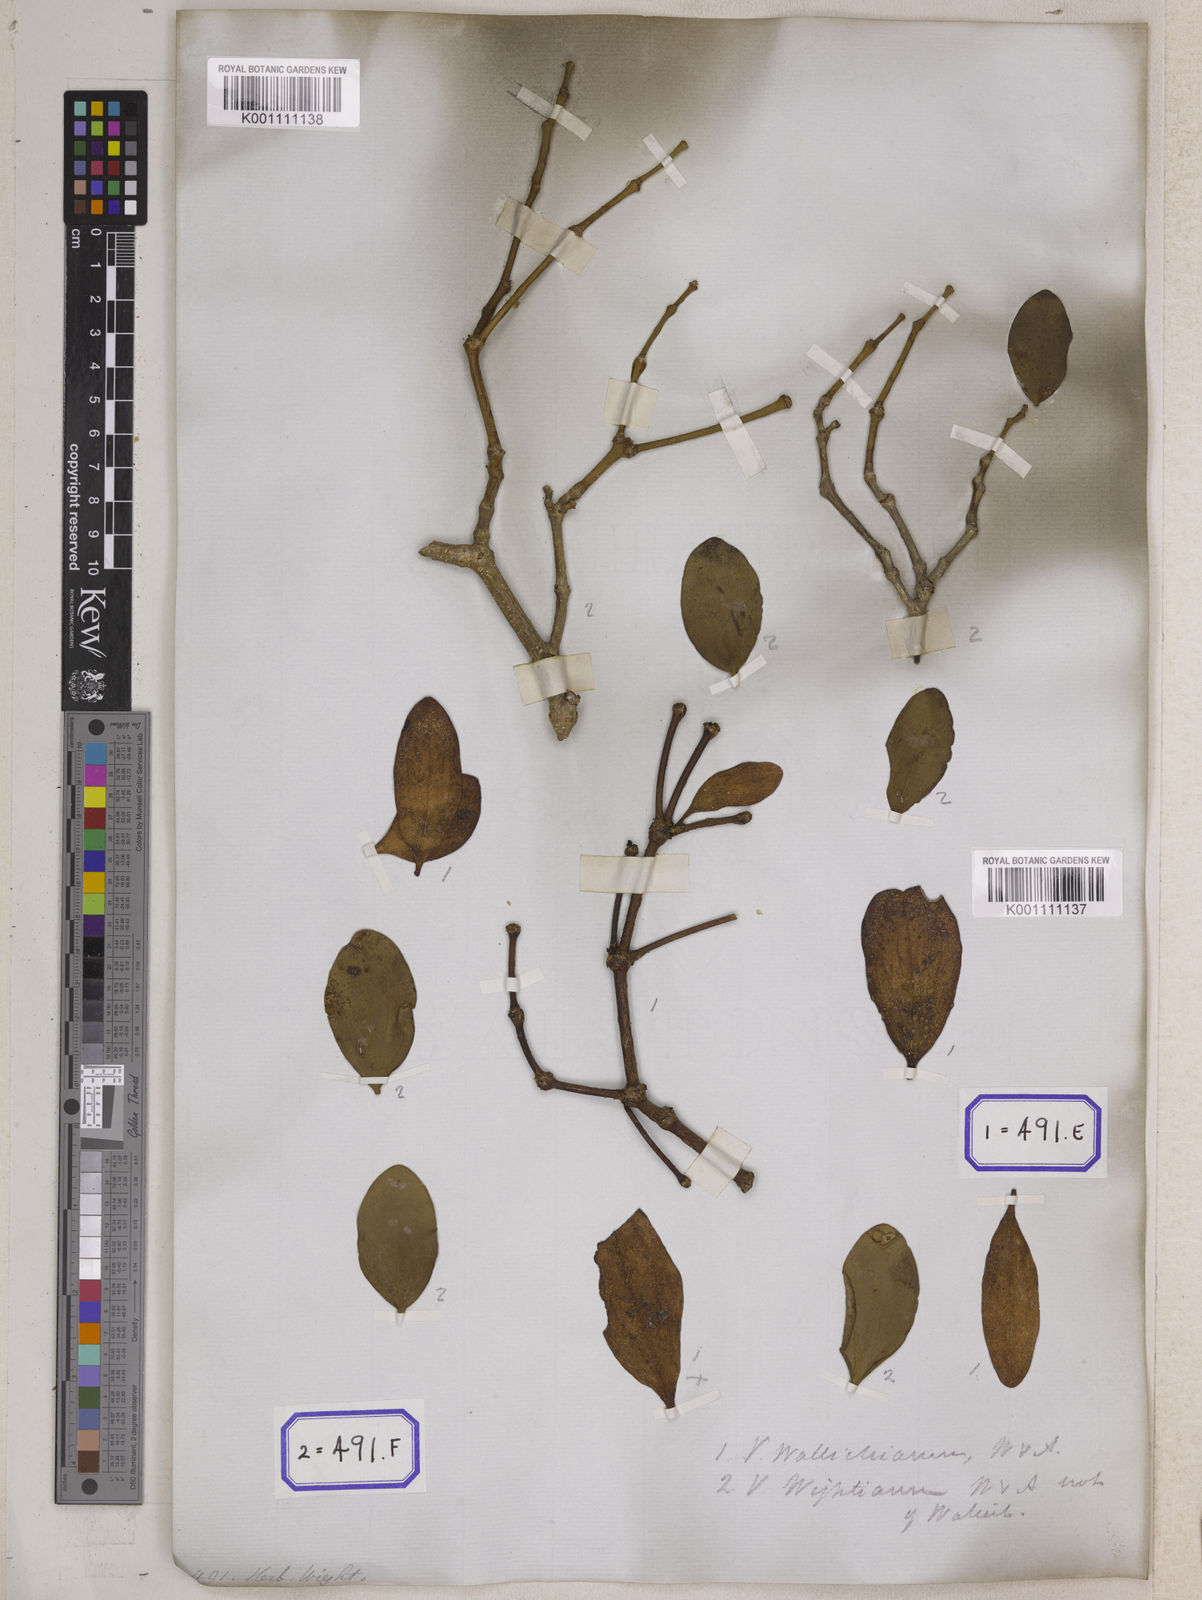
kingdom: Plantae
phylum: Tracheophyta
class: Magnoliopsida
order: Santalales
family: Viscaceae
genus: Viscum
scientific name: Viscum
